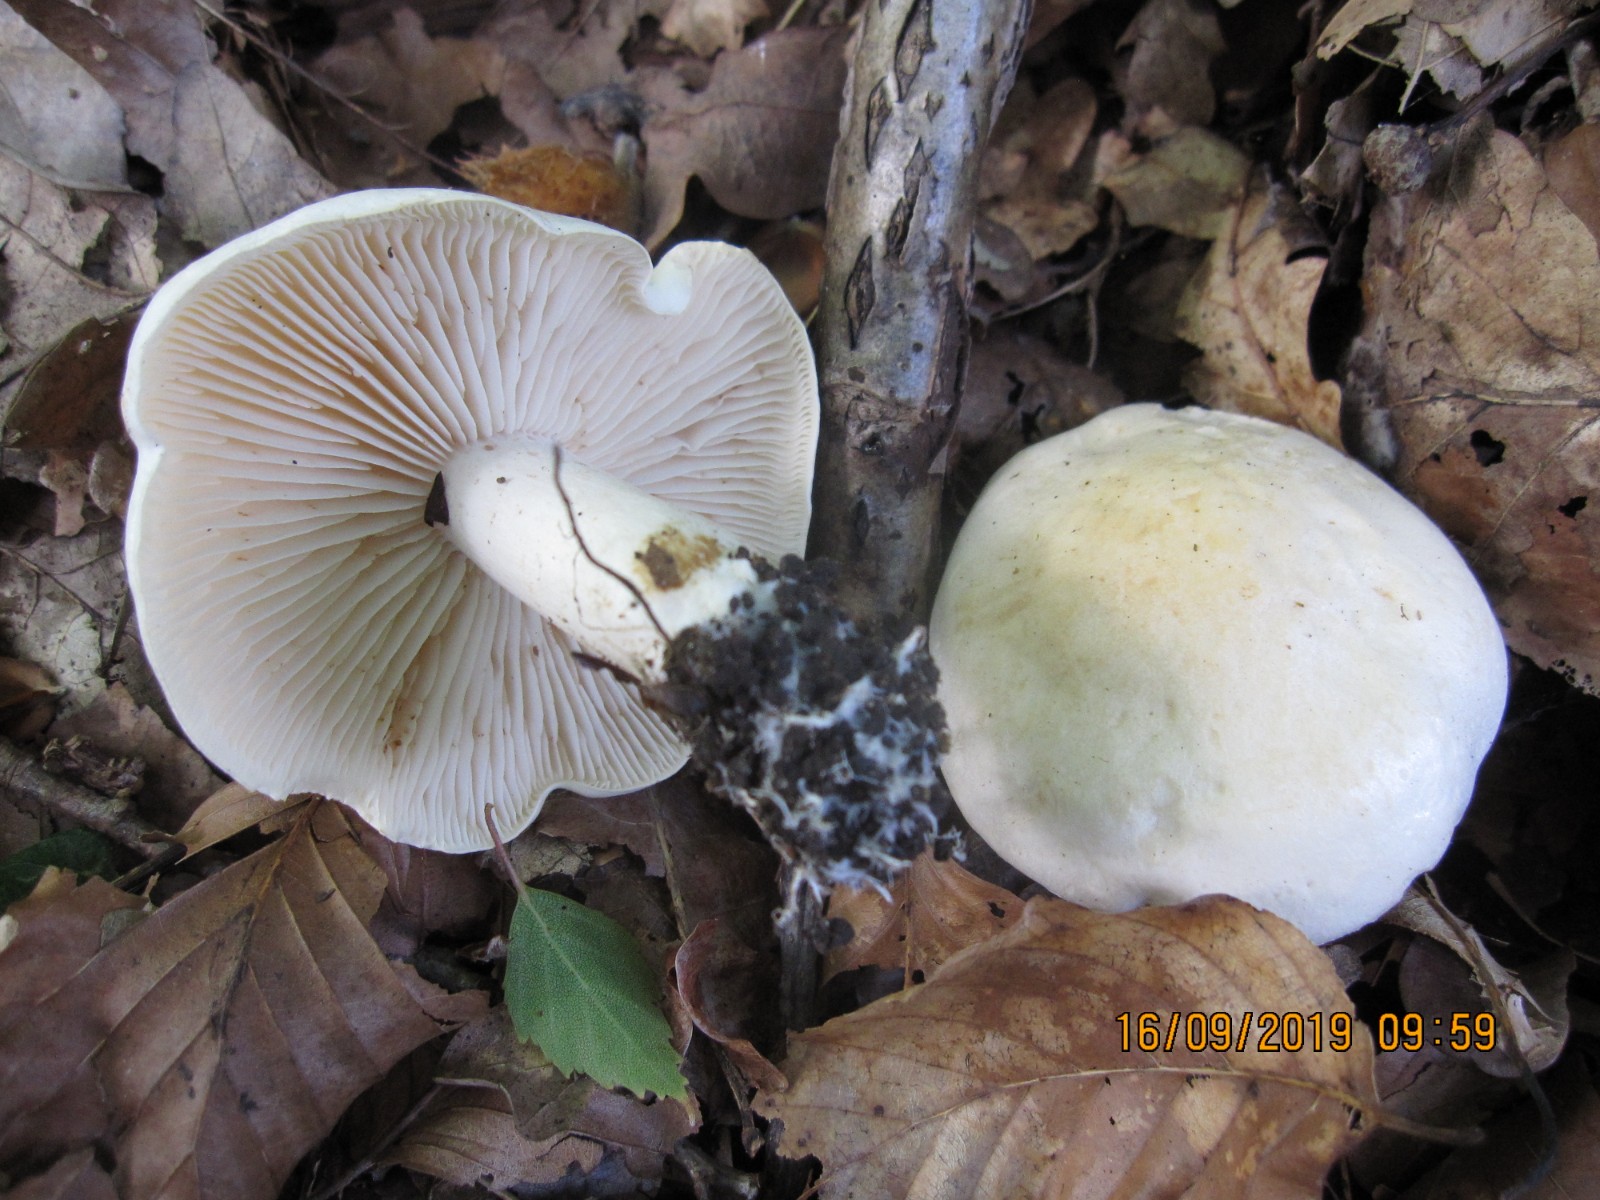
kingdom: Fungi
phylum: Basidiomycota
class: Agaricomycetes
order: Agaricales
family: Tricholomataceae
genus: Tricholoma
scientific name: Tricholoma album
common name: honning-ridderhat
